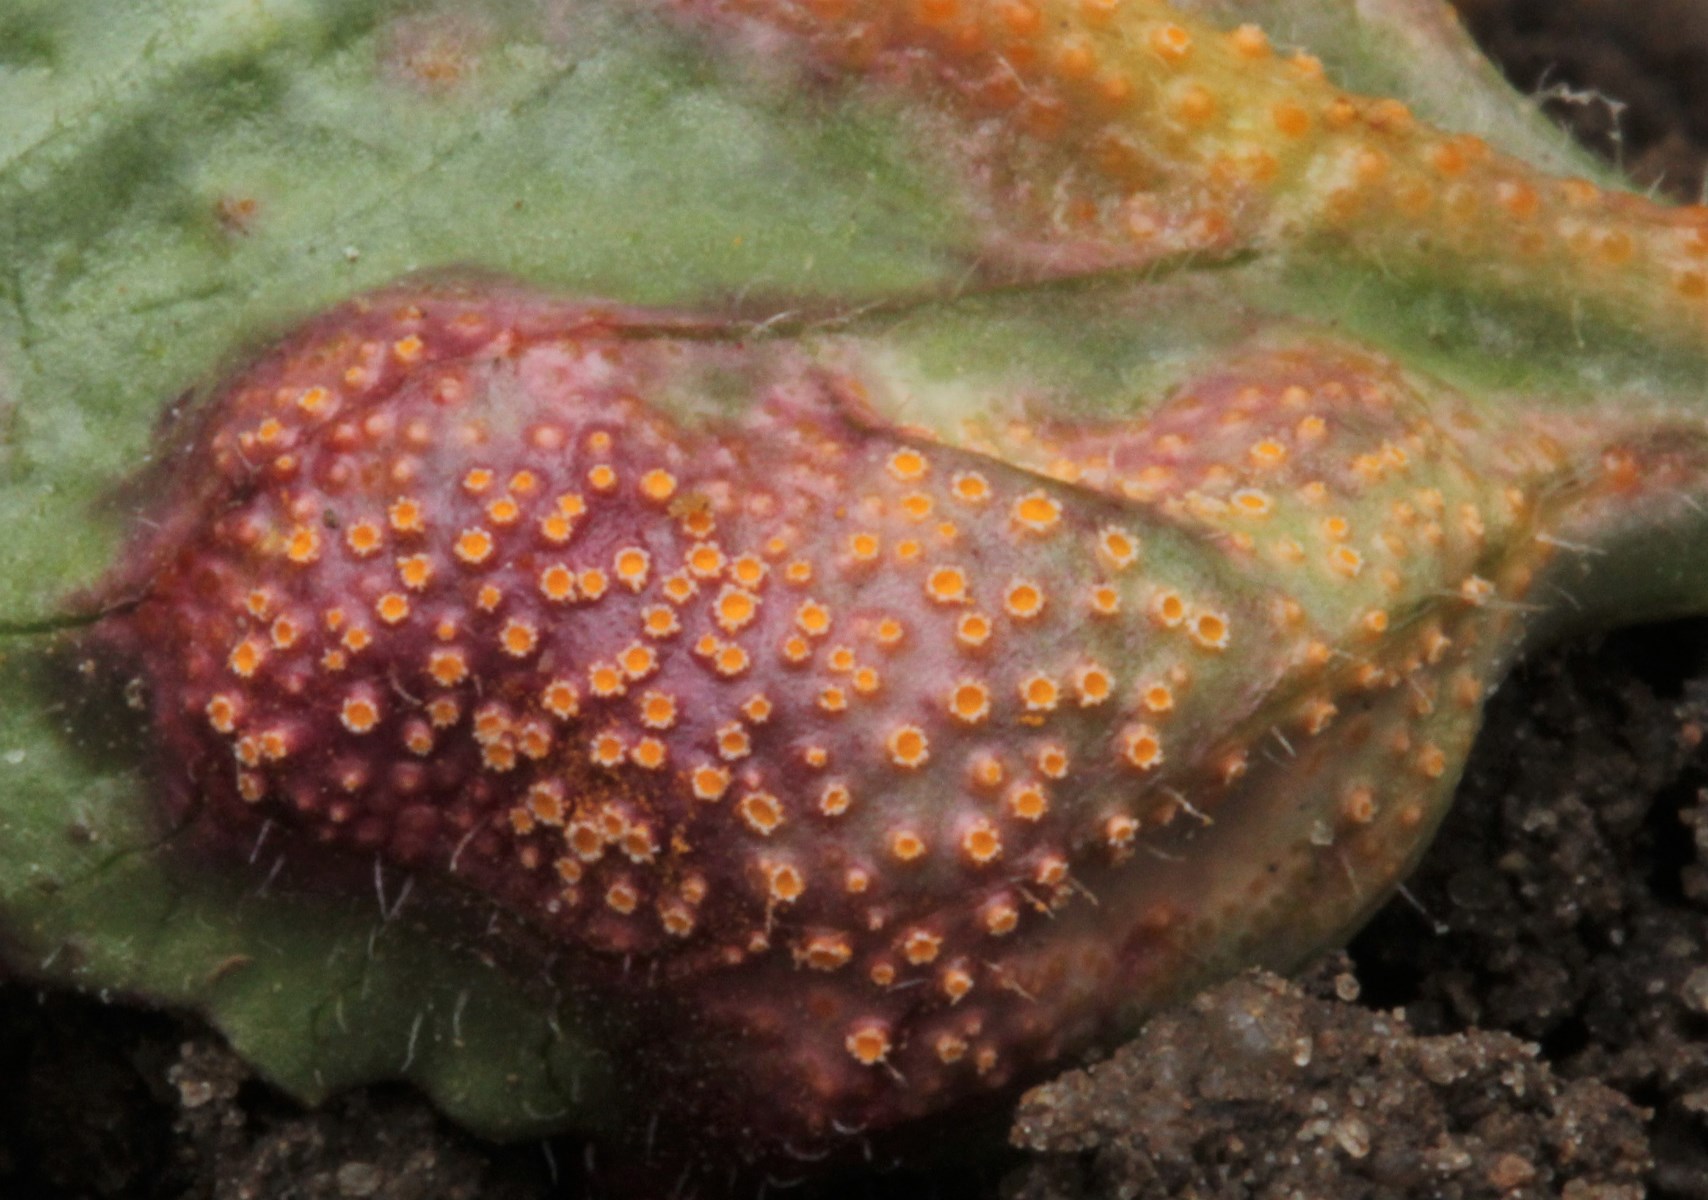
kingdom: Fungi
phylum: Basidiomycota
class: Pucciniomycetes
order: Pucciniales
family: Pucciniaceae
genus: Puccinia
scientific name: Puccinia
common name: tvecellerust
